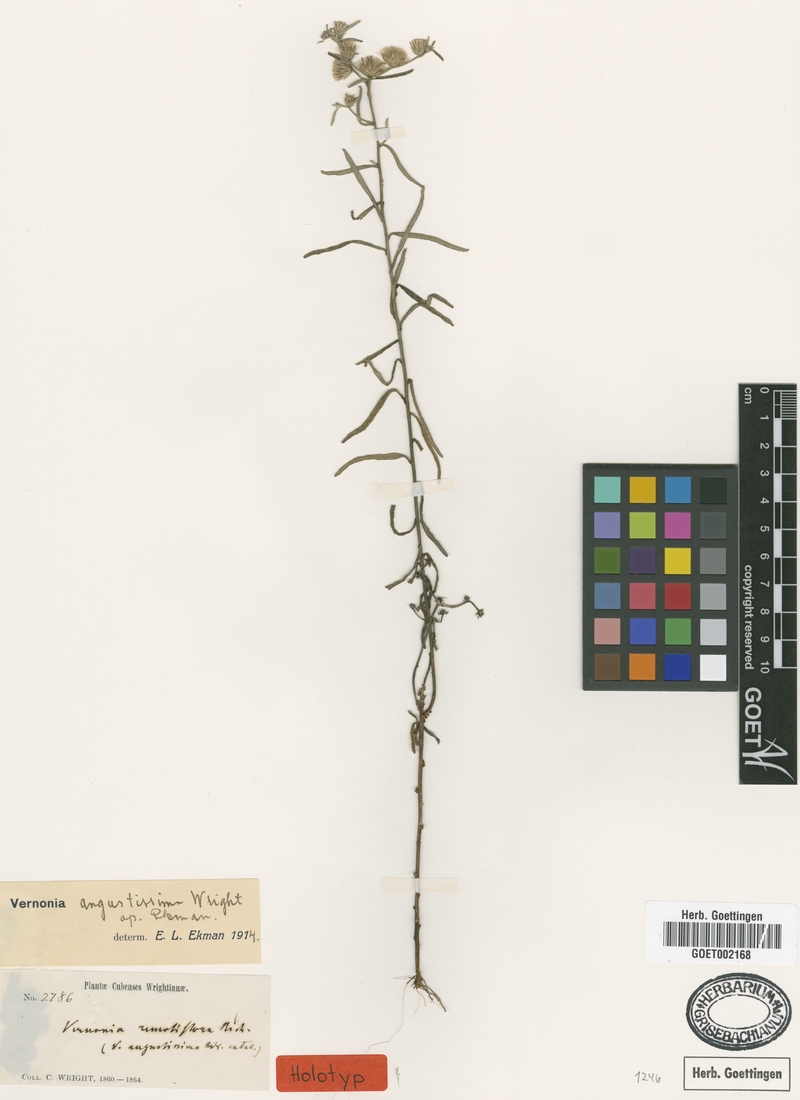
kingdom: Plantae
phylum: Tracheophyta
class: Magnoliopsida
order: Asterales
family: Asteraceae
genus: Lepidaploa
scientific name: Lepidaploa sericea
